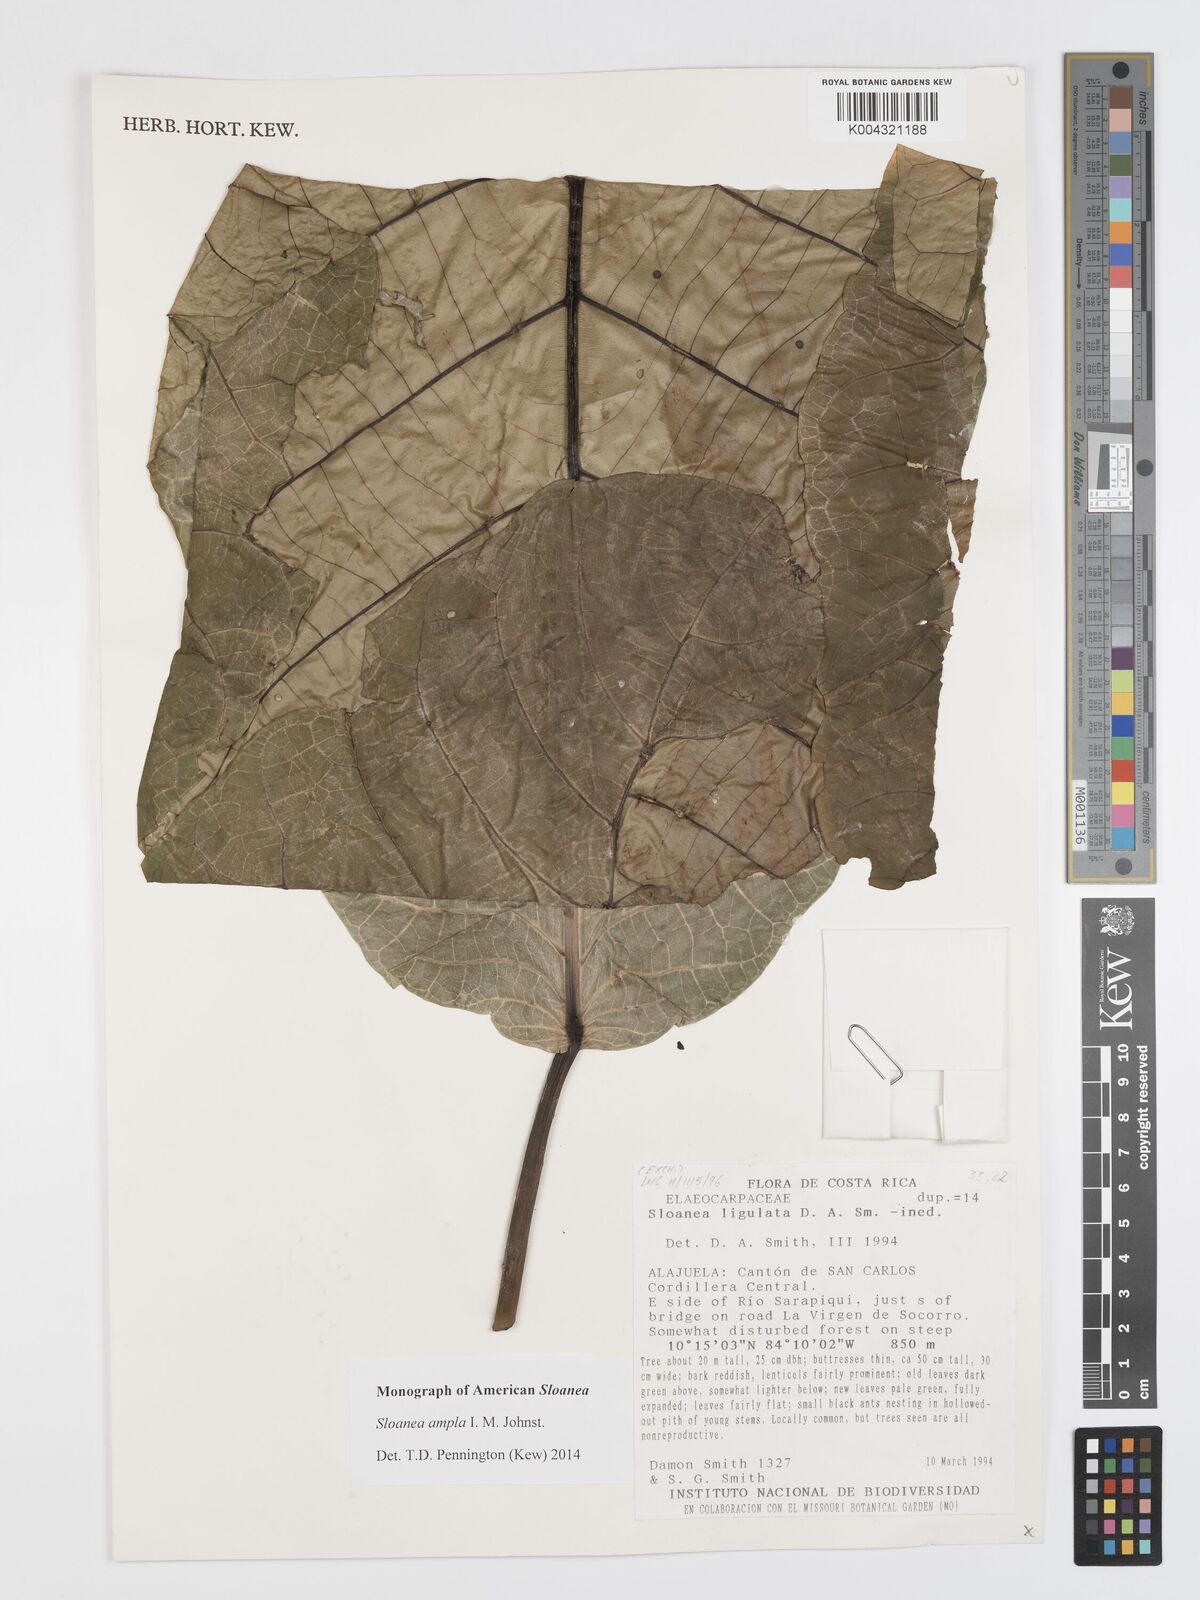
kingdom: Plantae
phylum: Tracheophyta
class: Magnoliopsida
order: Oxalidales
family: Elaeocarpaceae
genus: Sloanea
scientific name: Sloanea ampla
